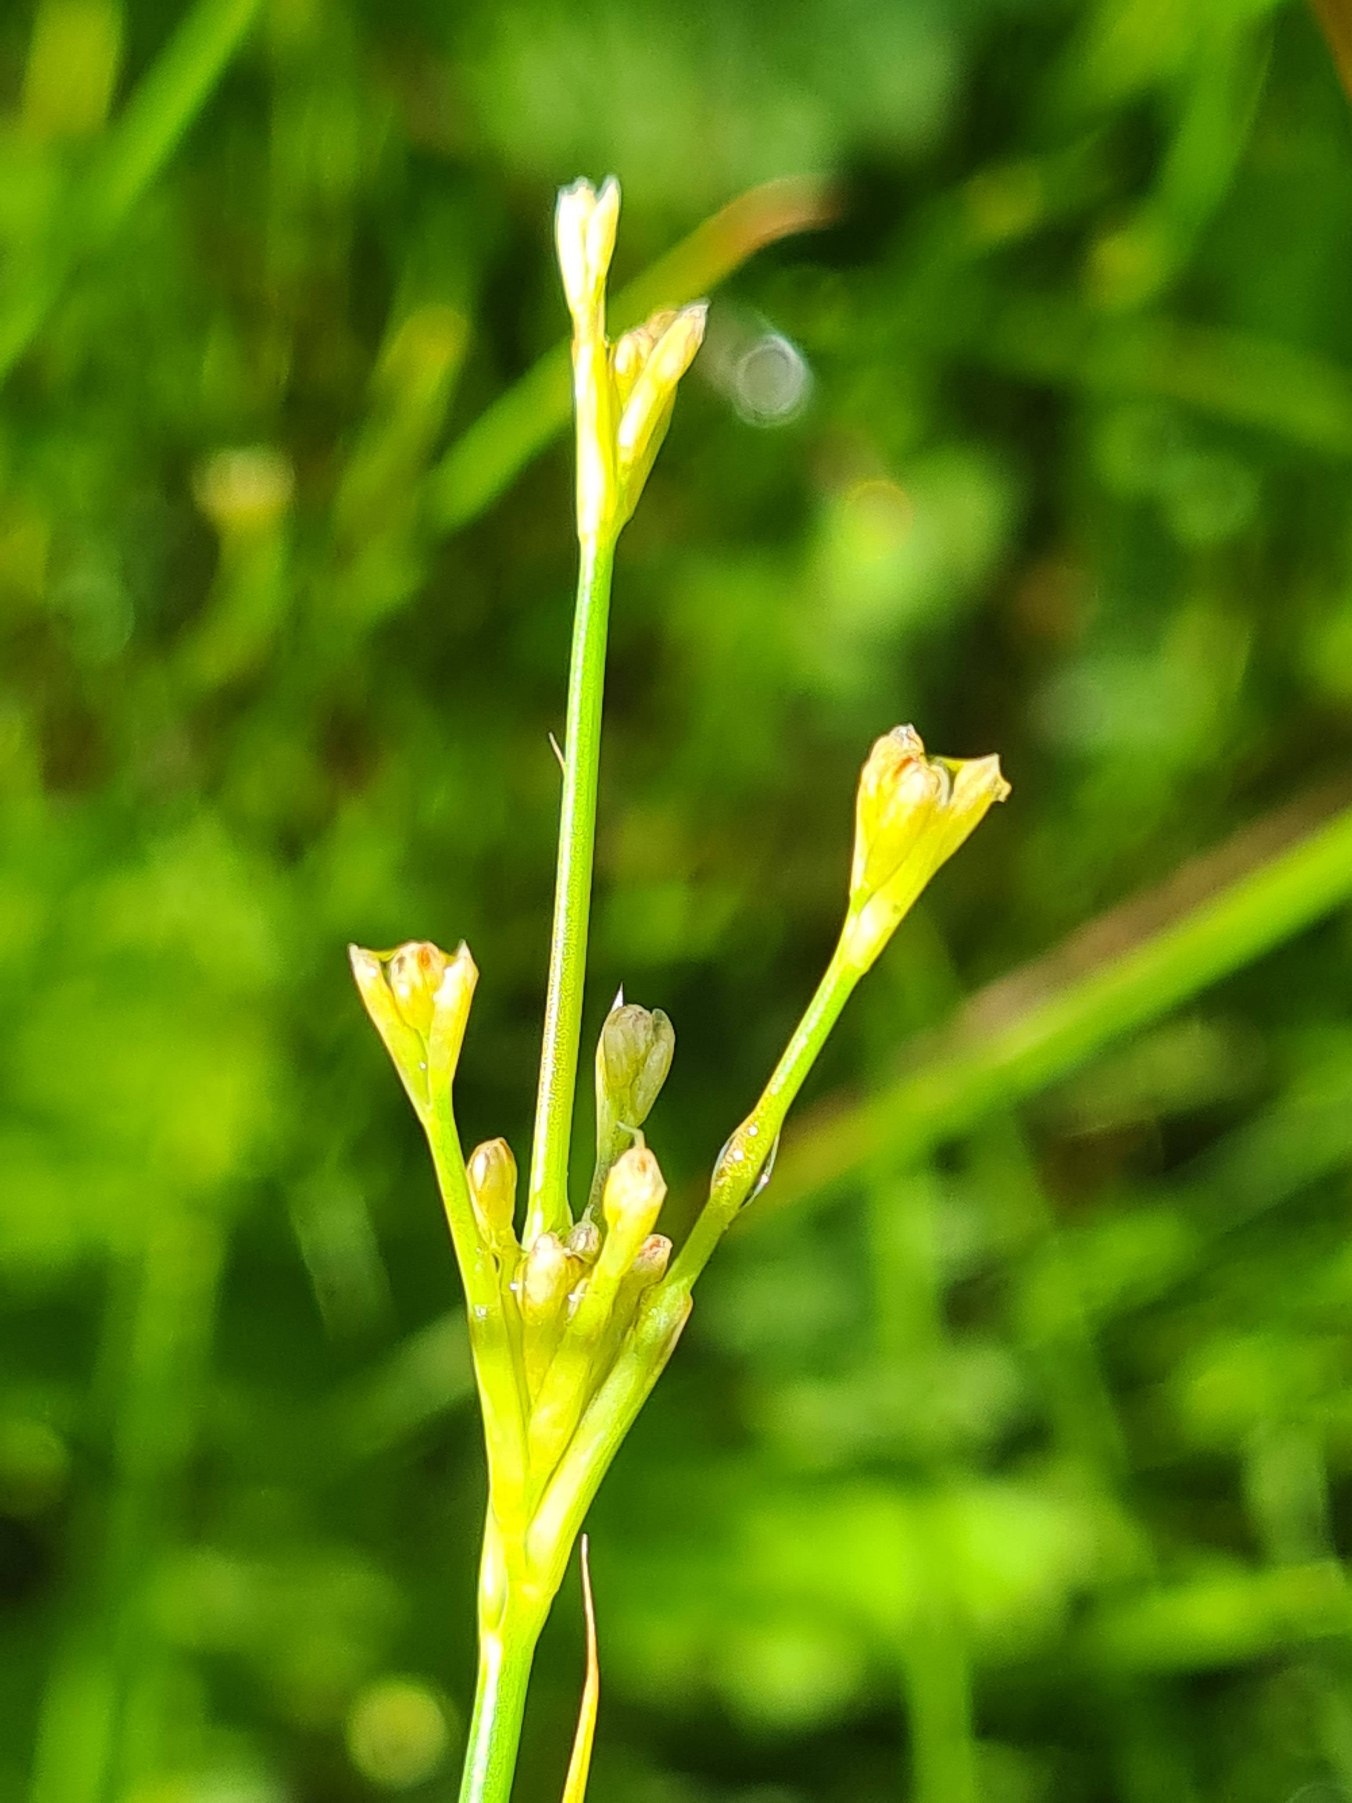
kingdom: Plantae
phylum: Tracheophyta
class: Liliopsida
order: Poales
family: Juncaceae
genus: Juncus
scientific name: Juncus subnodulosus
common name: Butblomstret siv
